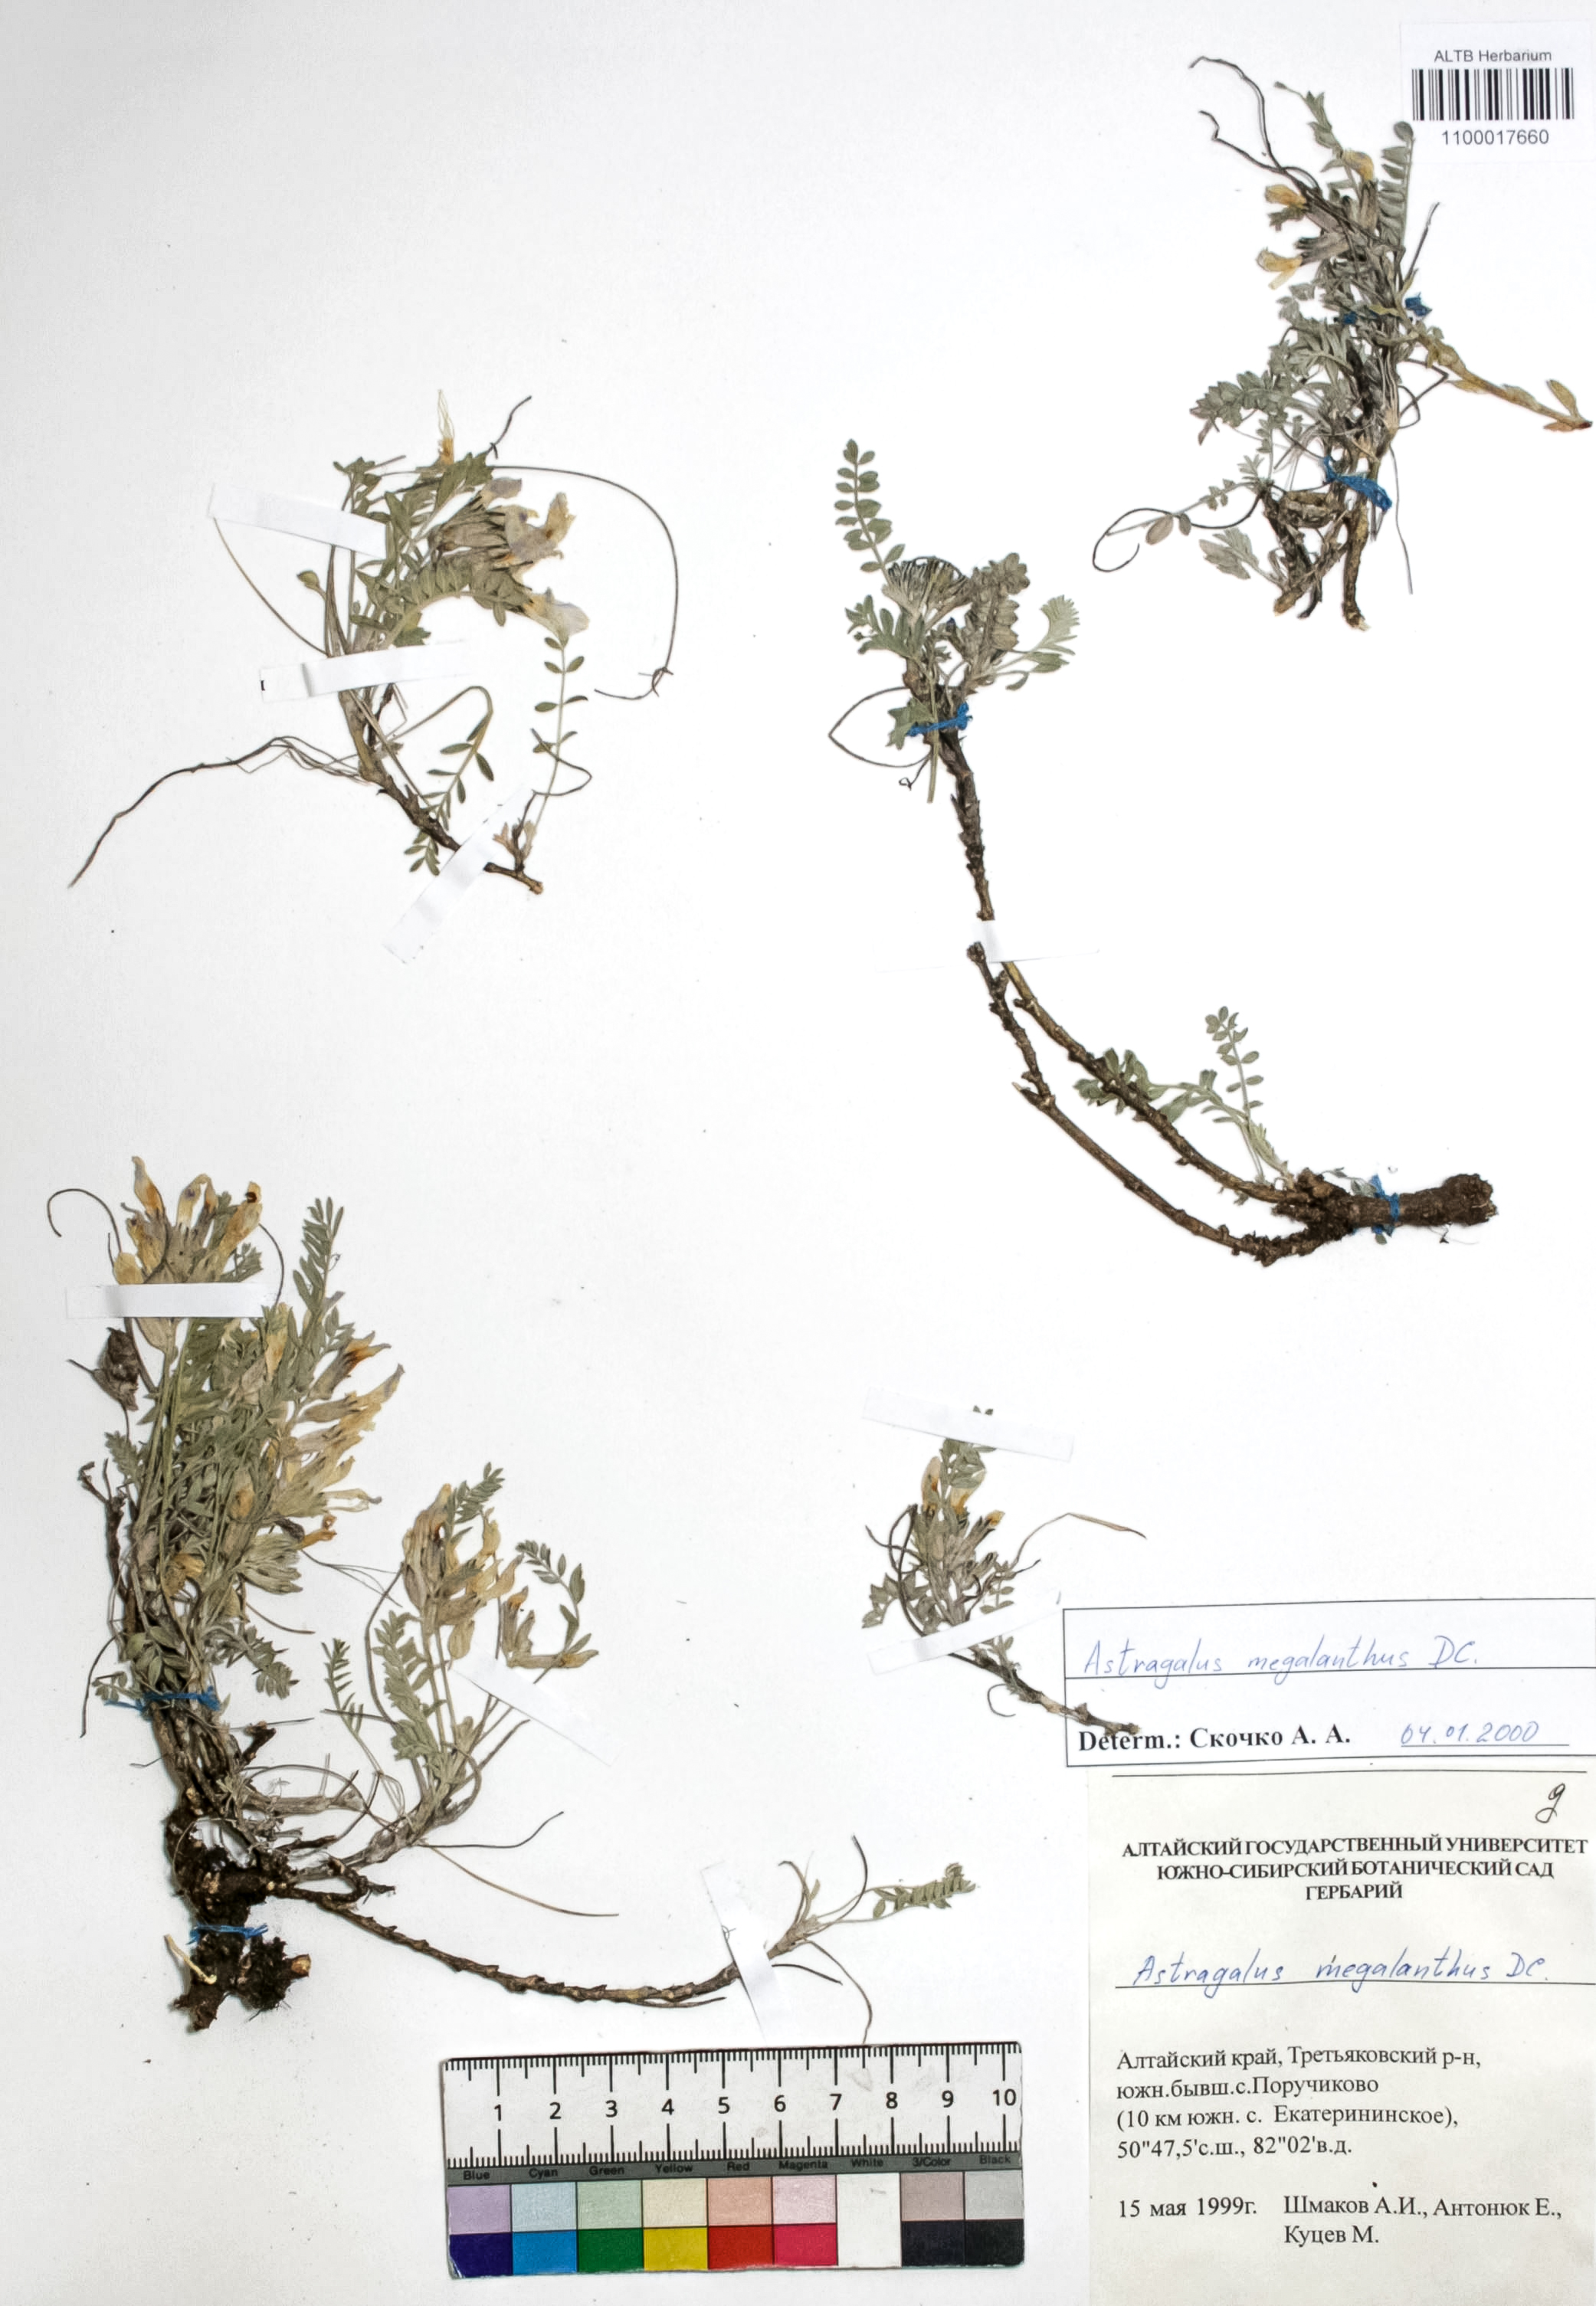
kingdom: Plantae
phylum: Tracheophyta
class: Magnoliopsida
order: Fabales
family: Fabaceae
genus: Astragalus
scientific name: Astragalus leptostachys
